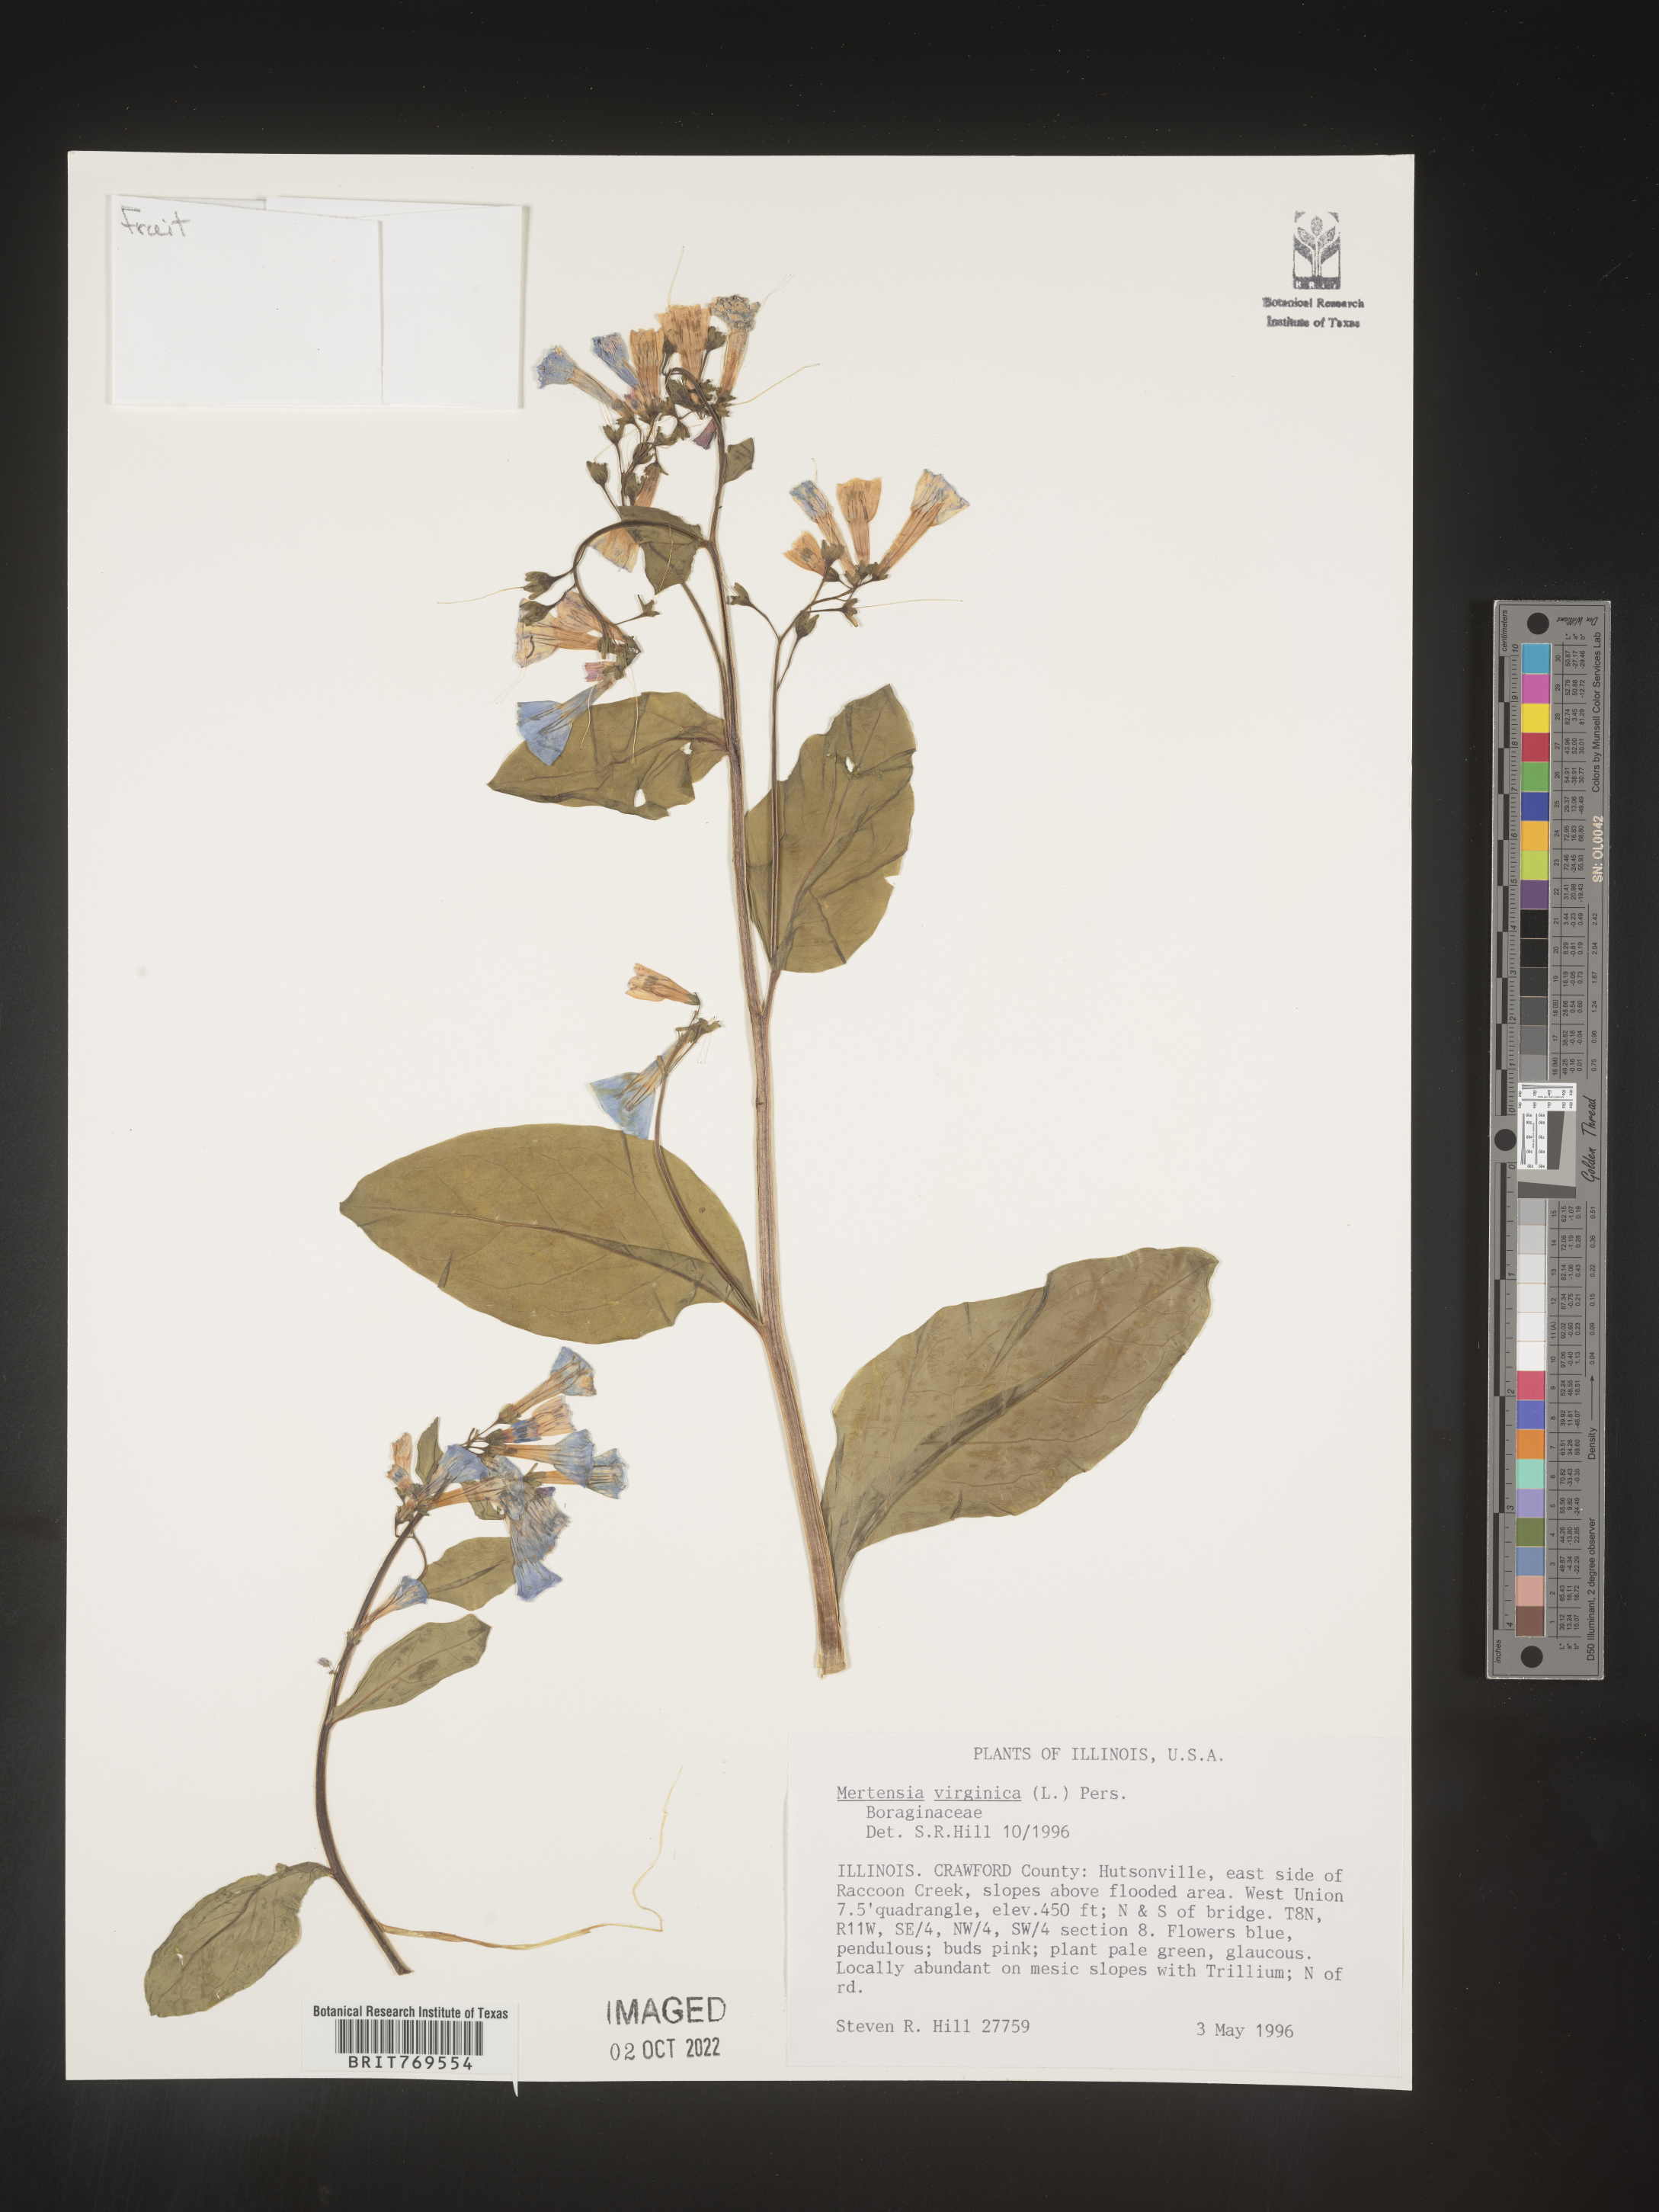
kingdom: Plantae
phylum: Tracheophyta
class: Magnoliopsida
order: Boraginales
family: Boraginaceae
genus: Mertensia
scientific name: Mertensia virginica
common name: Virginia bluebells
